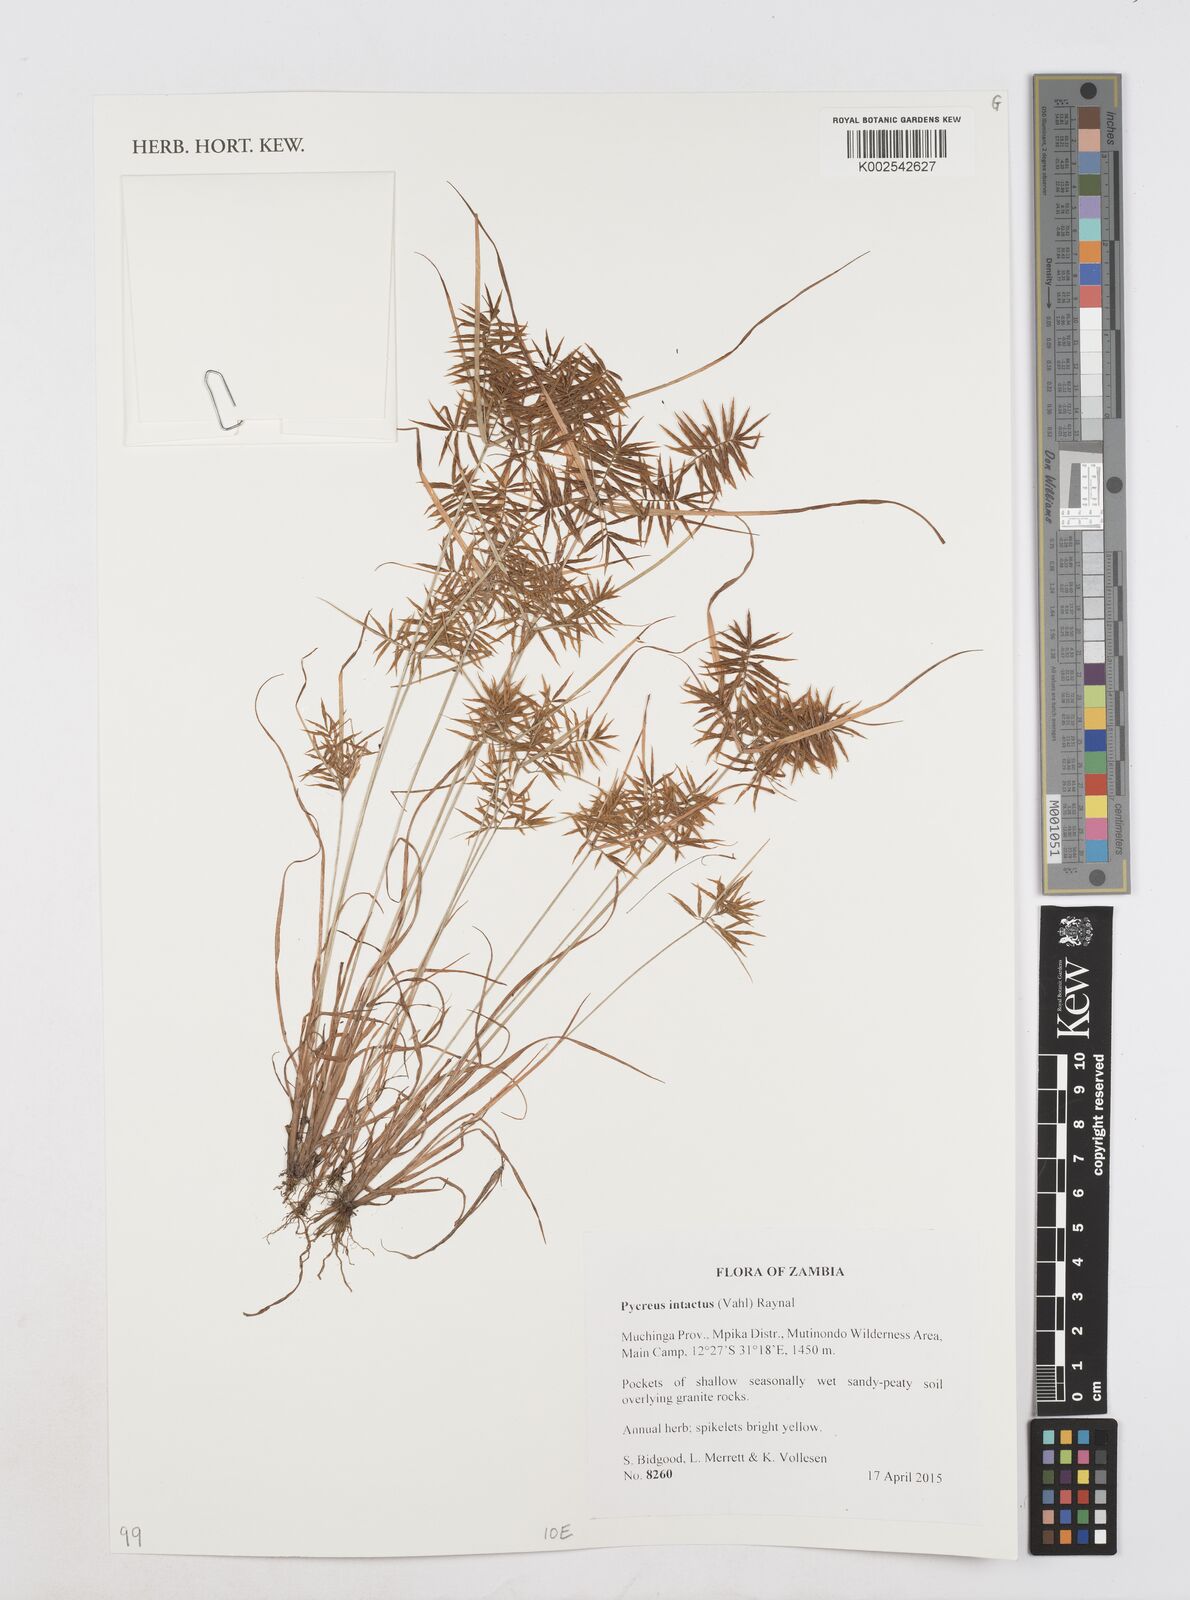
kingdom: Plantae
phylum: Tracheophyta
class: Liliopsida
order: Poales
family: Cyperaceae
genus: Cyperus
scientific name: Cyperus intactus
